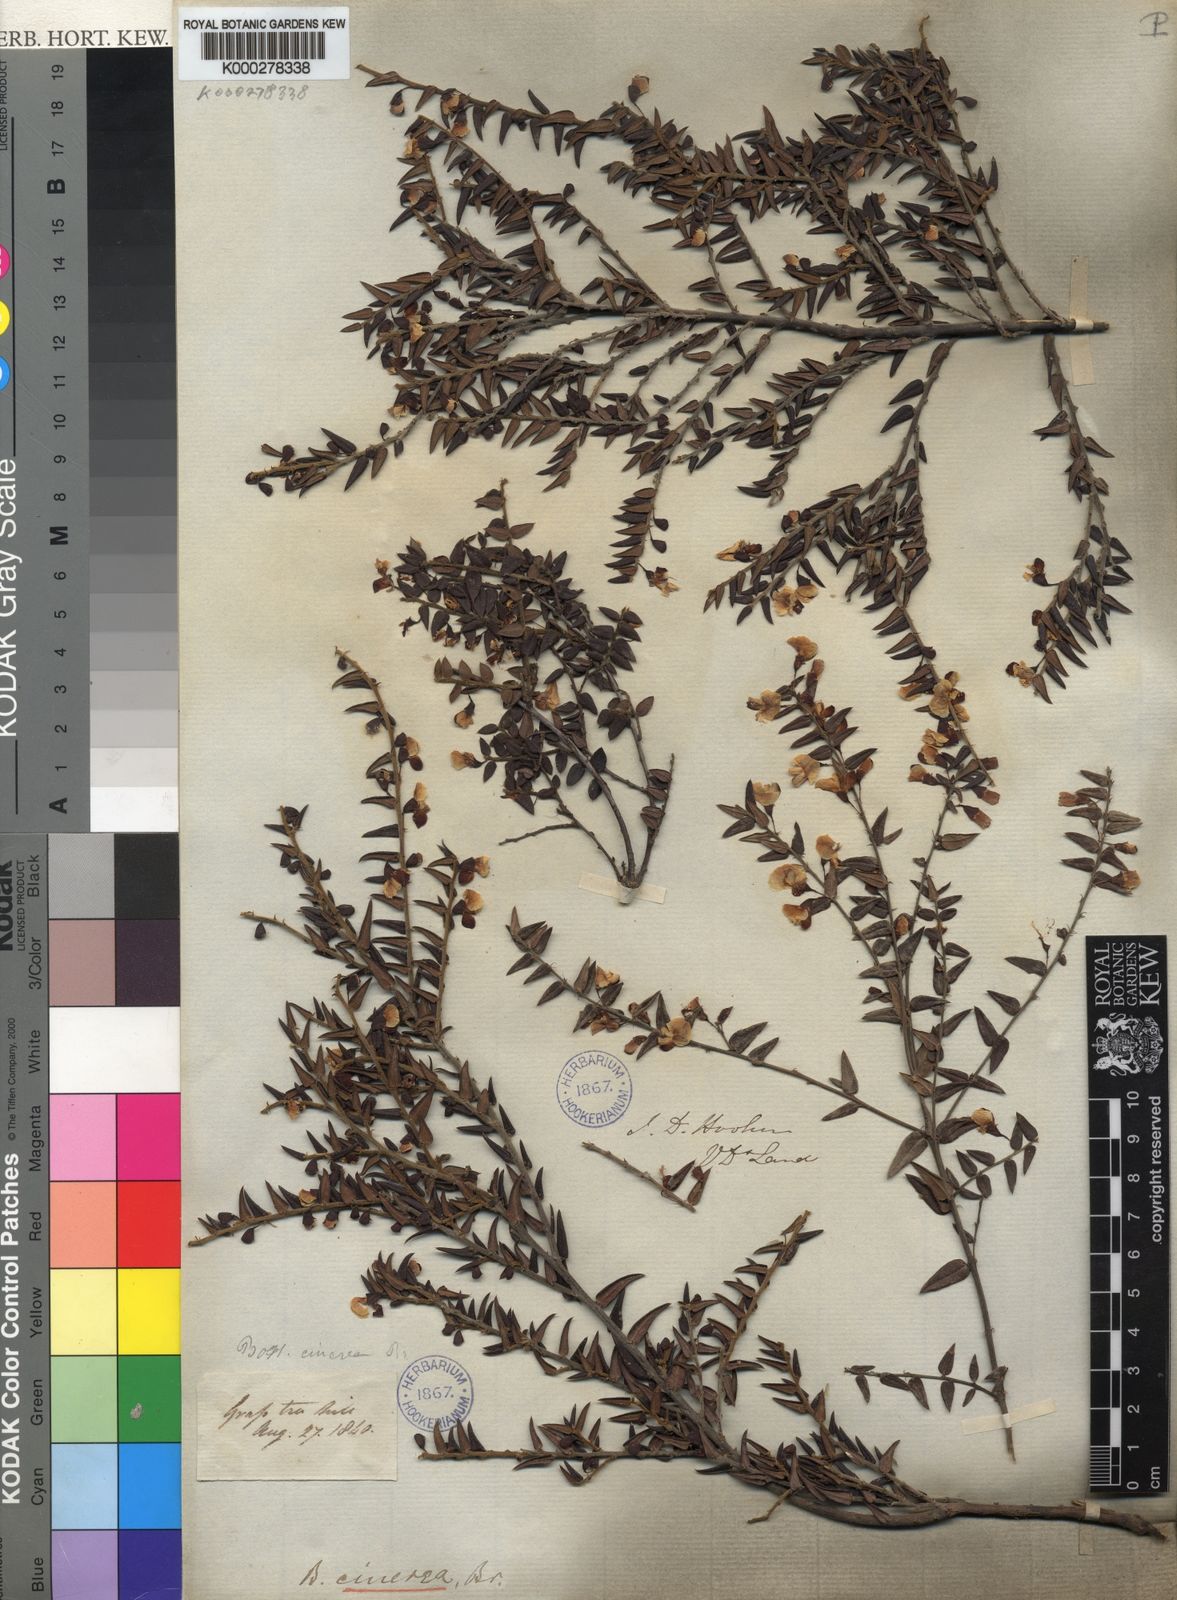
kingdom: Plantae
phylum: Tracheophyta
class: Magnoliopsida
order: Fabales
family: Fabaceae
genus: Bossiaea
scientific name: Bossiaea cinerea
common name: Showy bossiaea
